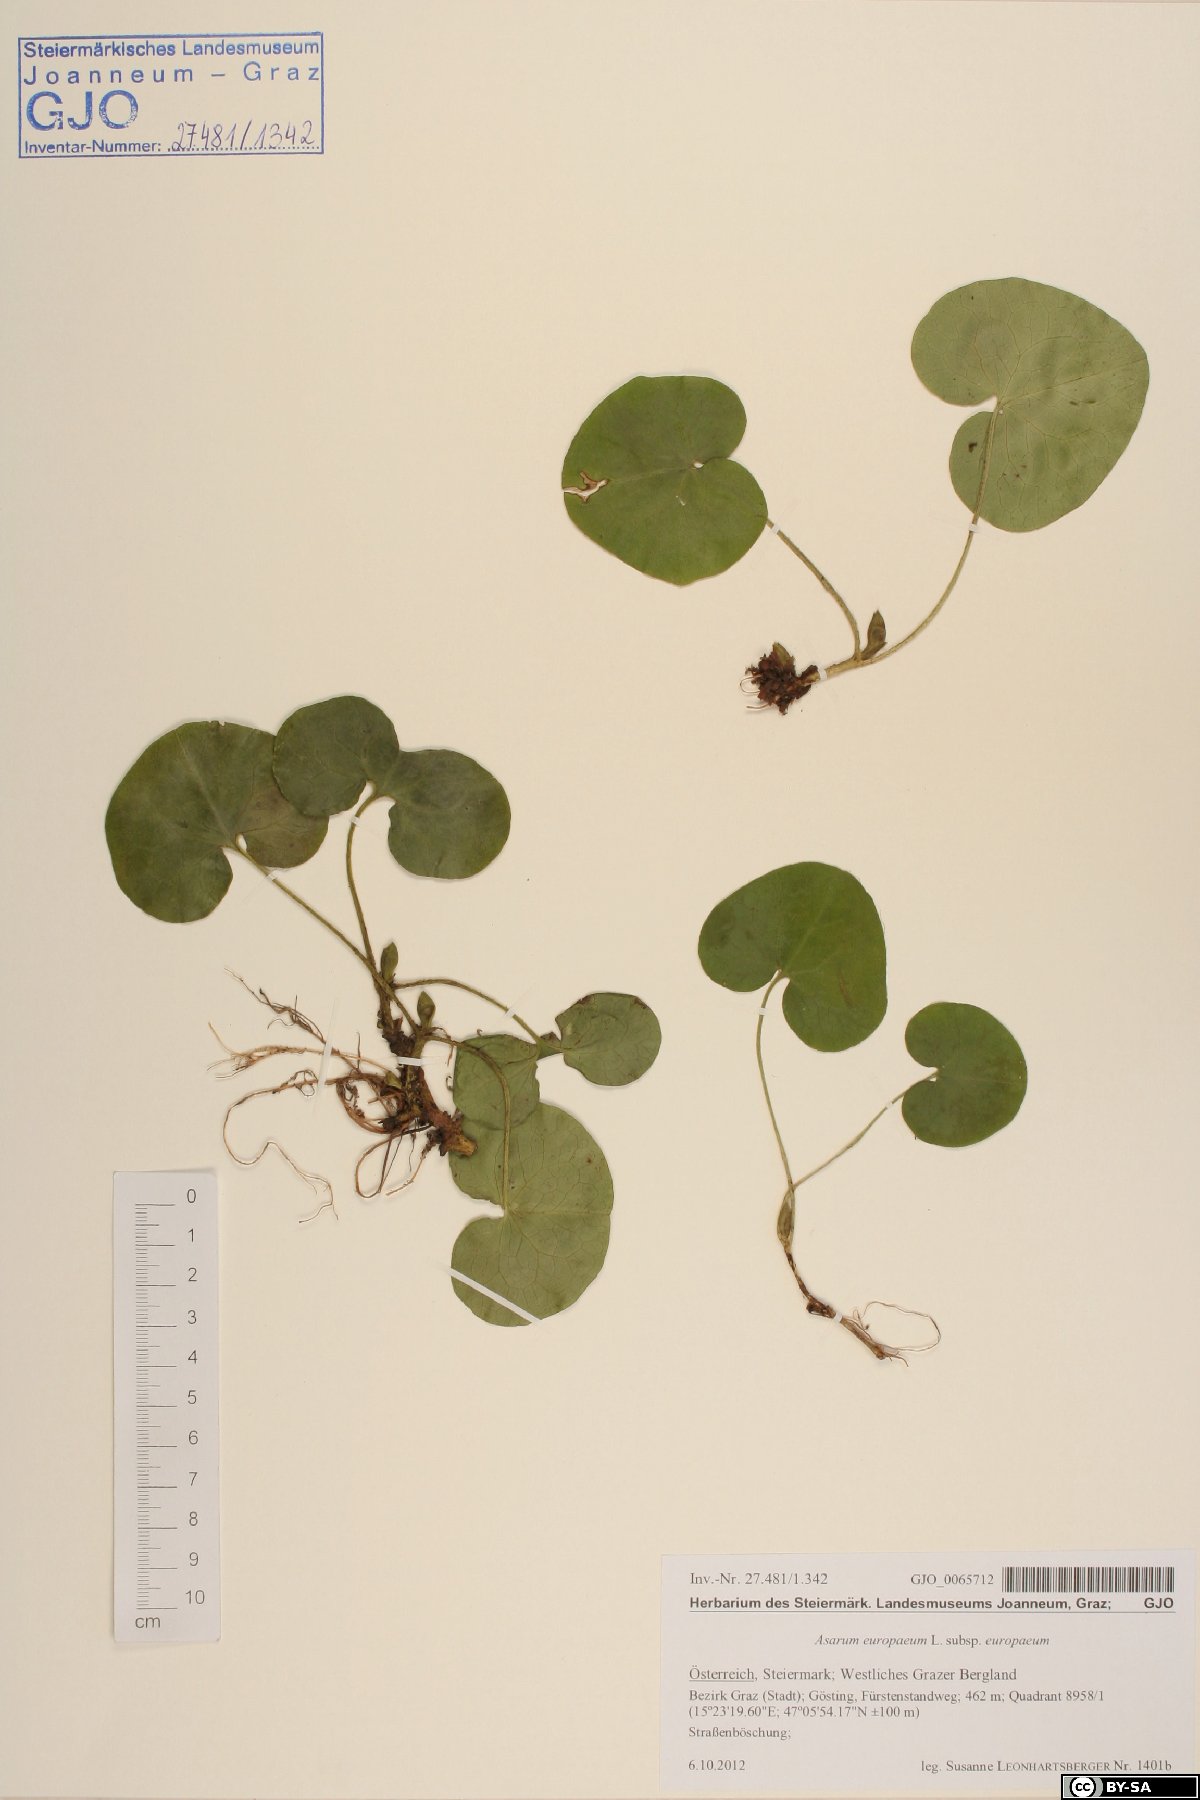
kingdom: Plantae
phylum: Tracheophyta
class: Magnoliopsida
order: Piperales
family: Aristolochiaceae
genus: Asarum
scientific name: Asarum europaeum
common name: Asarabacca
